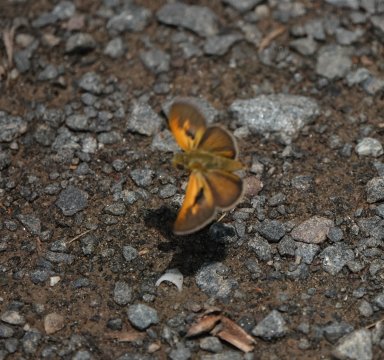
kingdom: Animalia
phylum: Arthropoda
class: Insecta
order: Lepidoptera
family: Hesperiidae
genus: Polites
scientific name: Polites themistocles
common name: Tawny-edged Skipper
